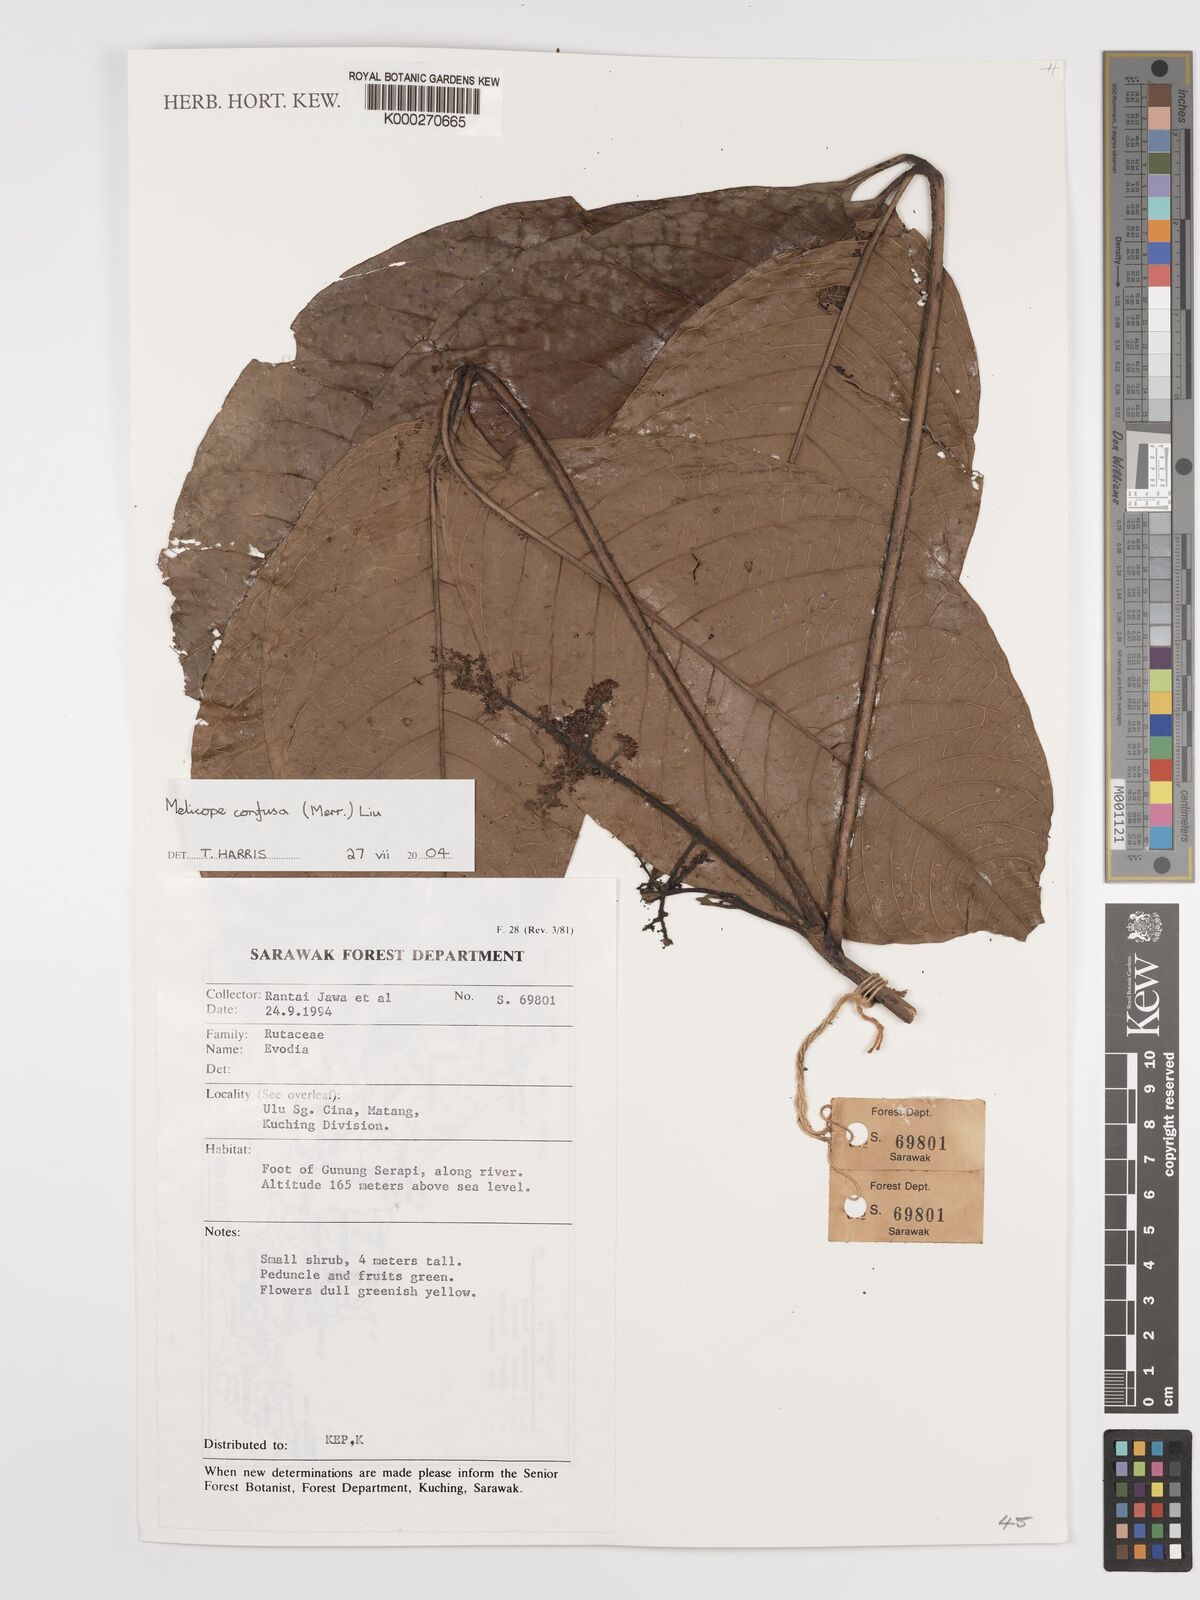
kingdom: Plantae
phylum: Tracheophyta
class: Magnoliopsida
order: Sapindales
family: Rutaceae
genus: Melicope
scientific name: Melicope frutescens
